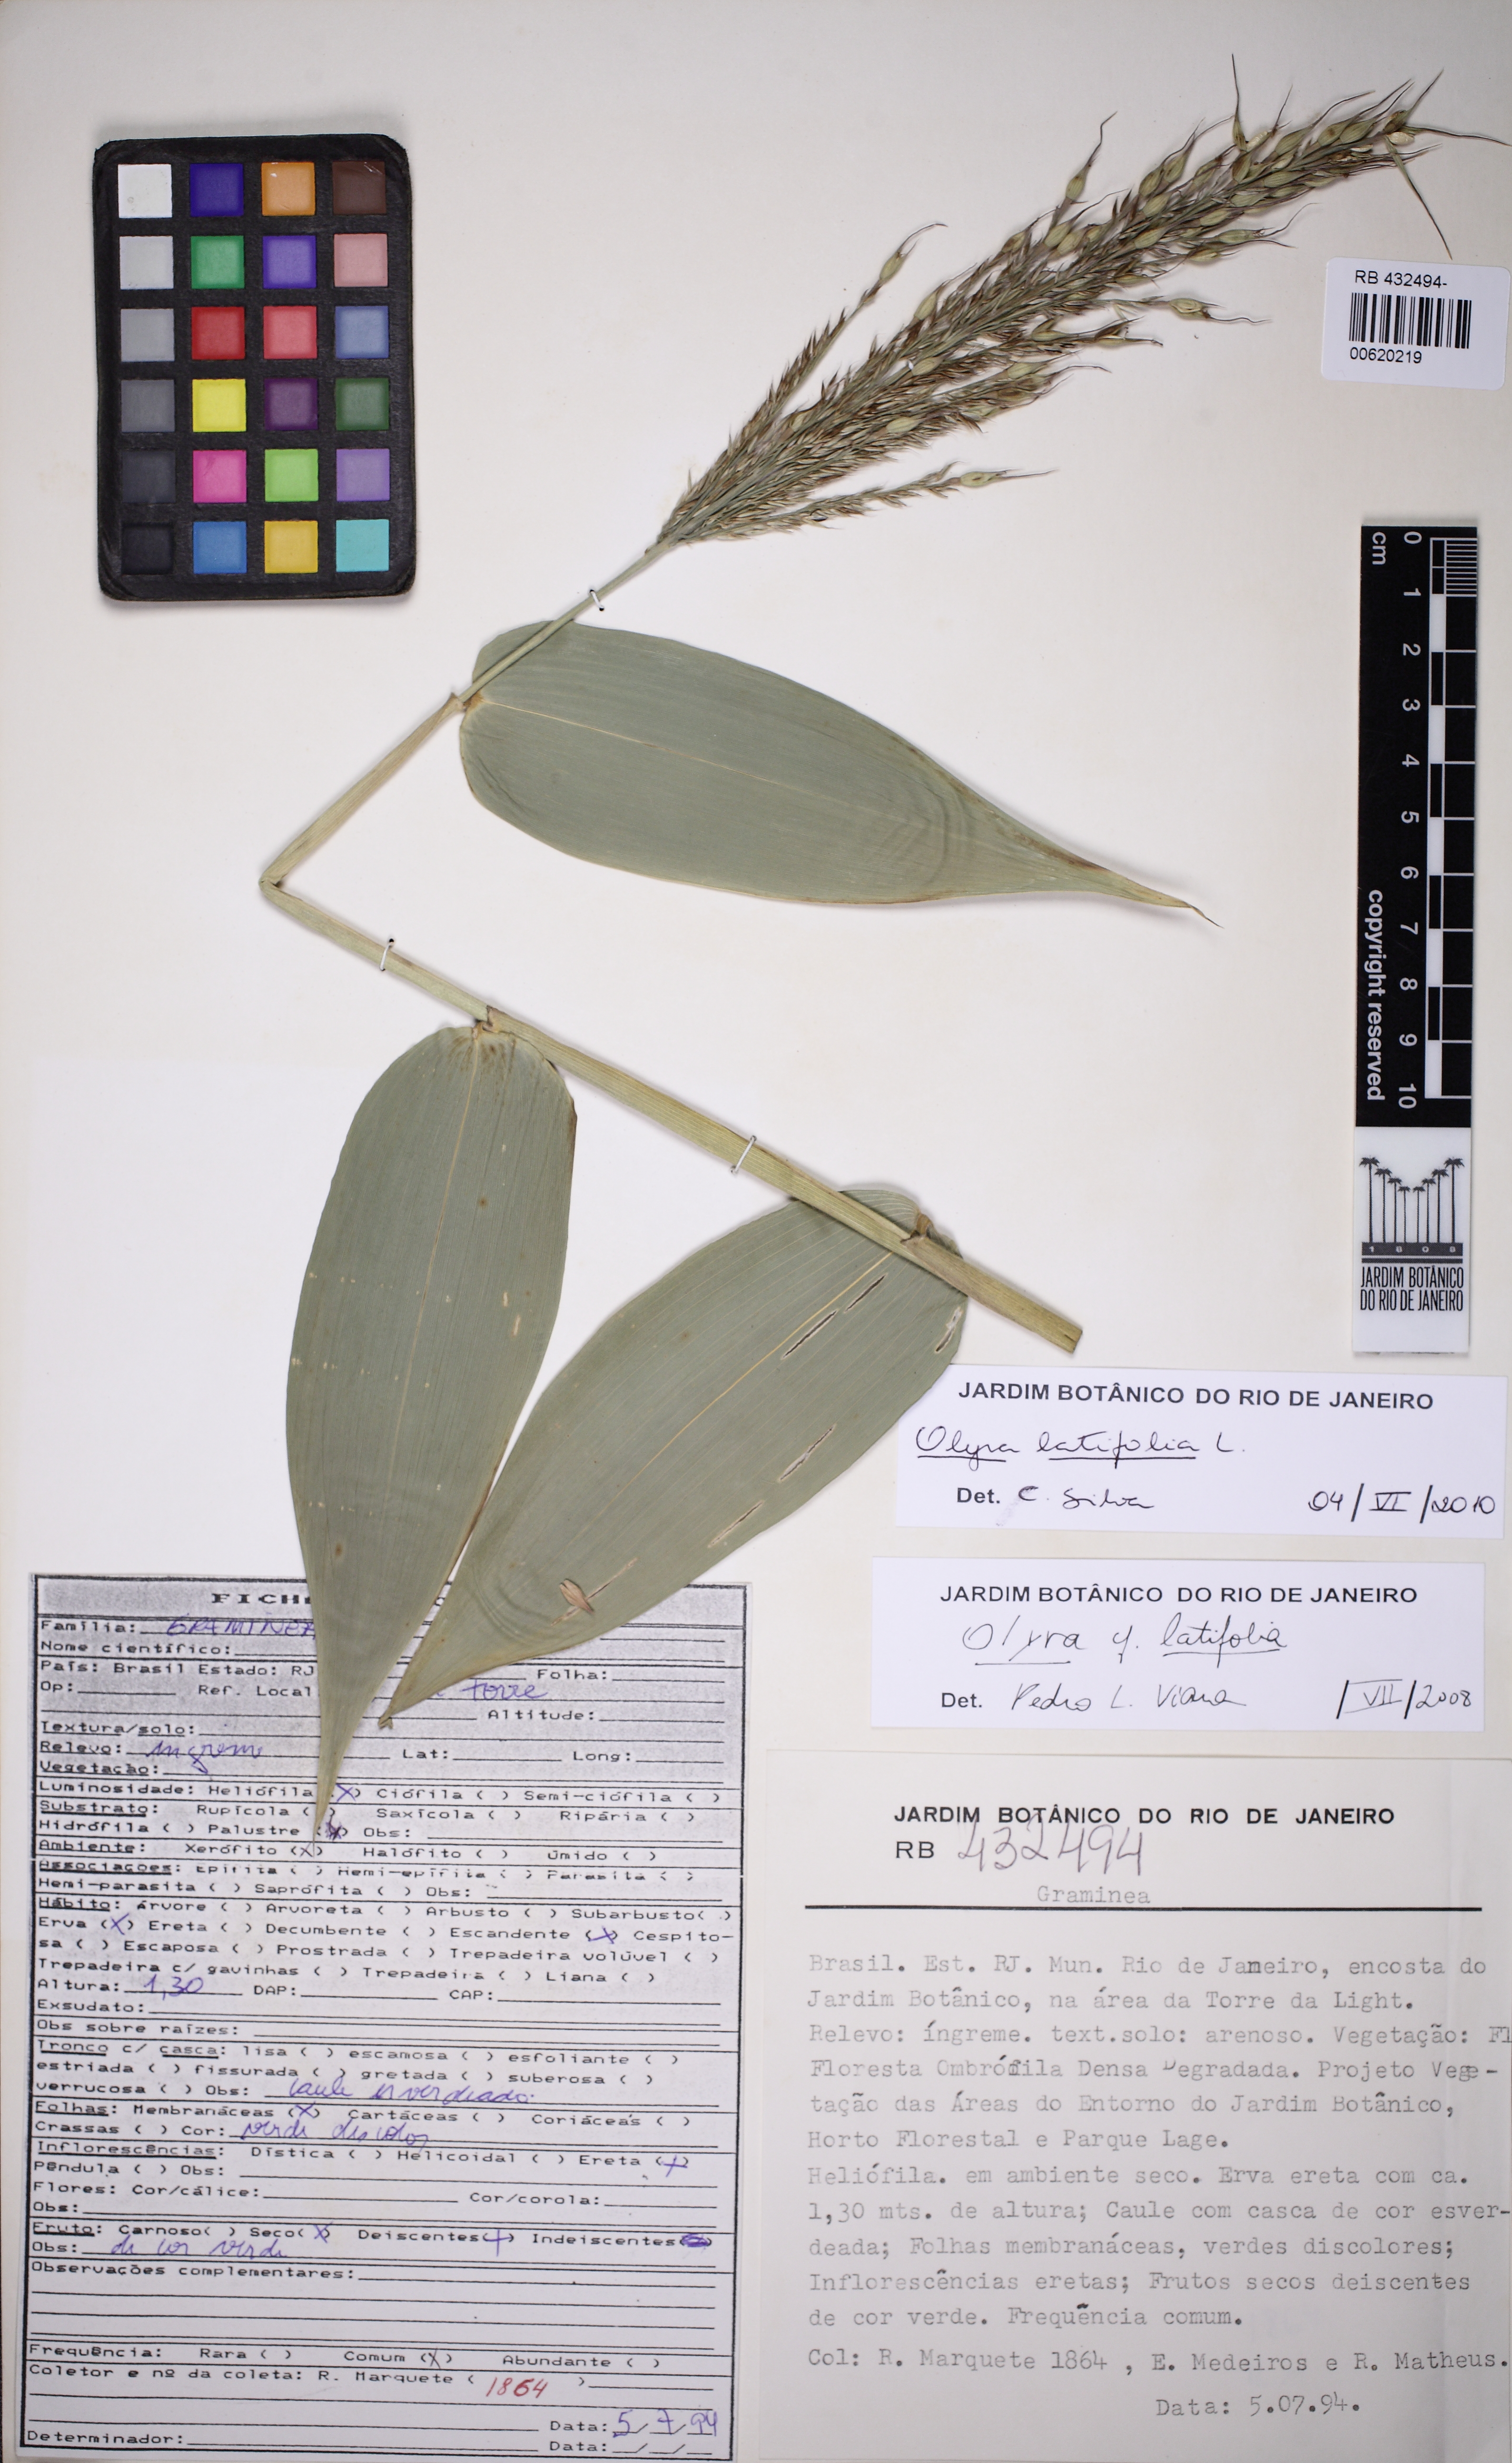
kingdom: Plantae
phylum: Tracheophyta
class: Liliopsida
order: Poales
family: Poaceae
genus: Olyra
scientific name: Olyra latifolia
